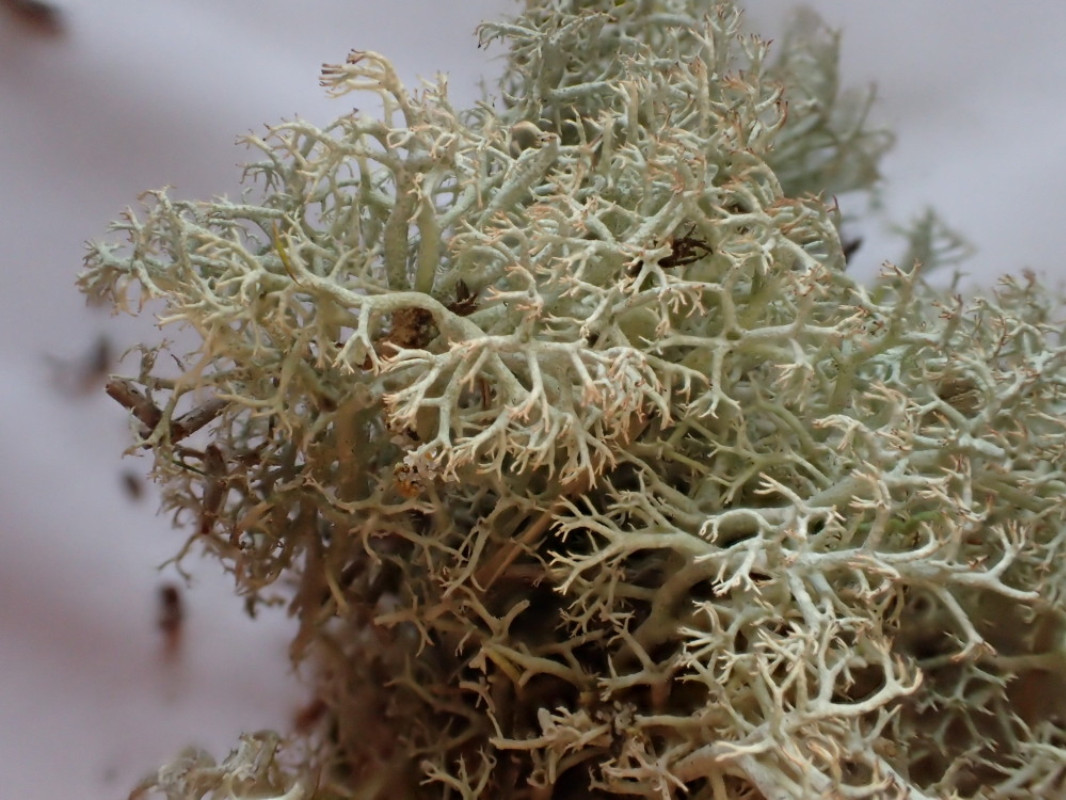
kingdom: Fungi
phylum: Ascomycota
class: Lecanoromycetes
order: Lecanorales
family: Cladoniaceae
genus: Cladonia
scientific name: Cladonia ciliata
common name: spinkel rensdyrlav
